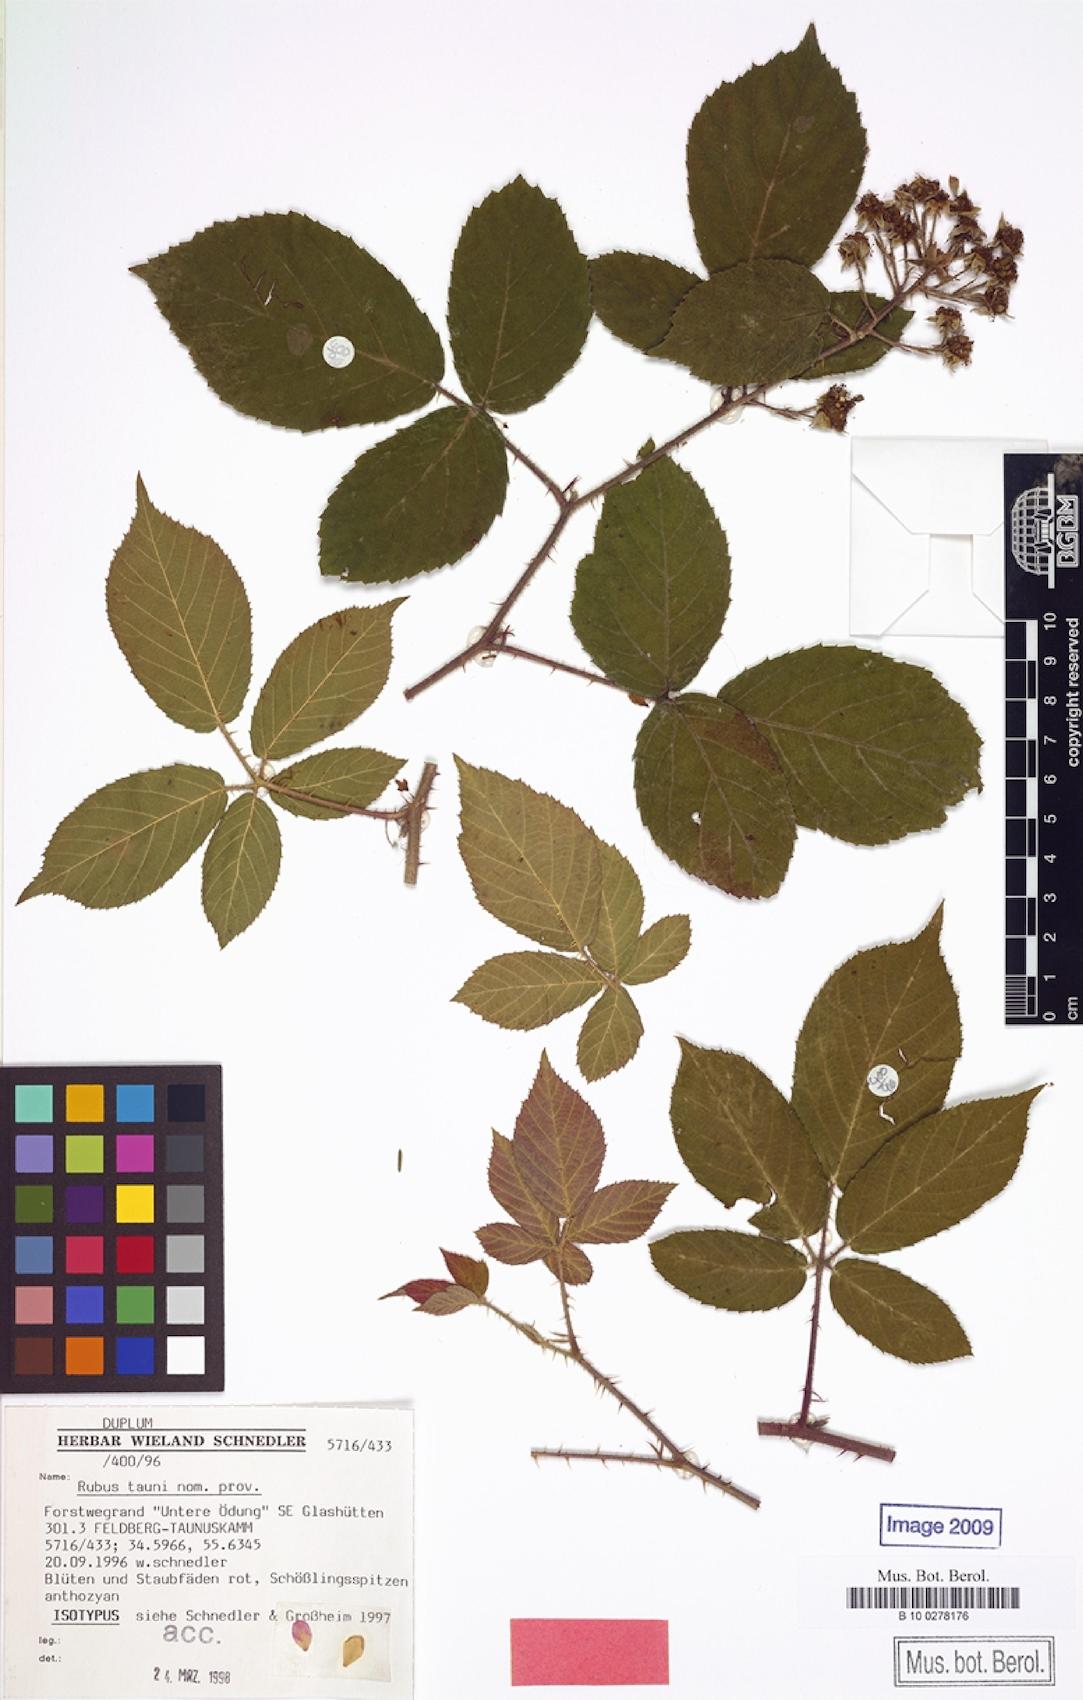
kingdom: Plantae
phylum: Tracheophyta
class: Magnoliopsida
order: Rosales
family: Rosaceae
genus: Rubus
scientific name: Rubus tauni
